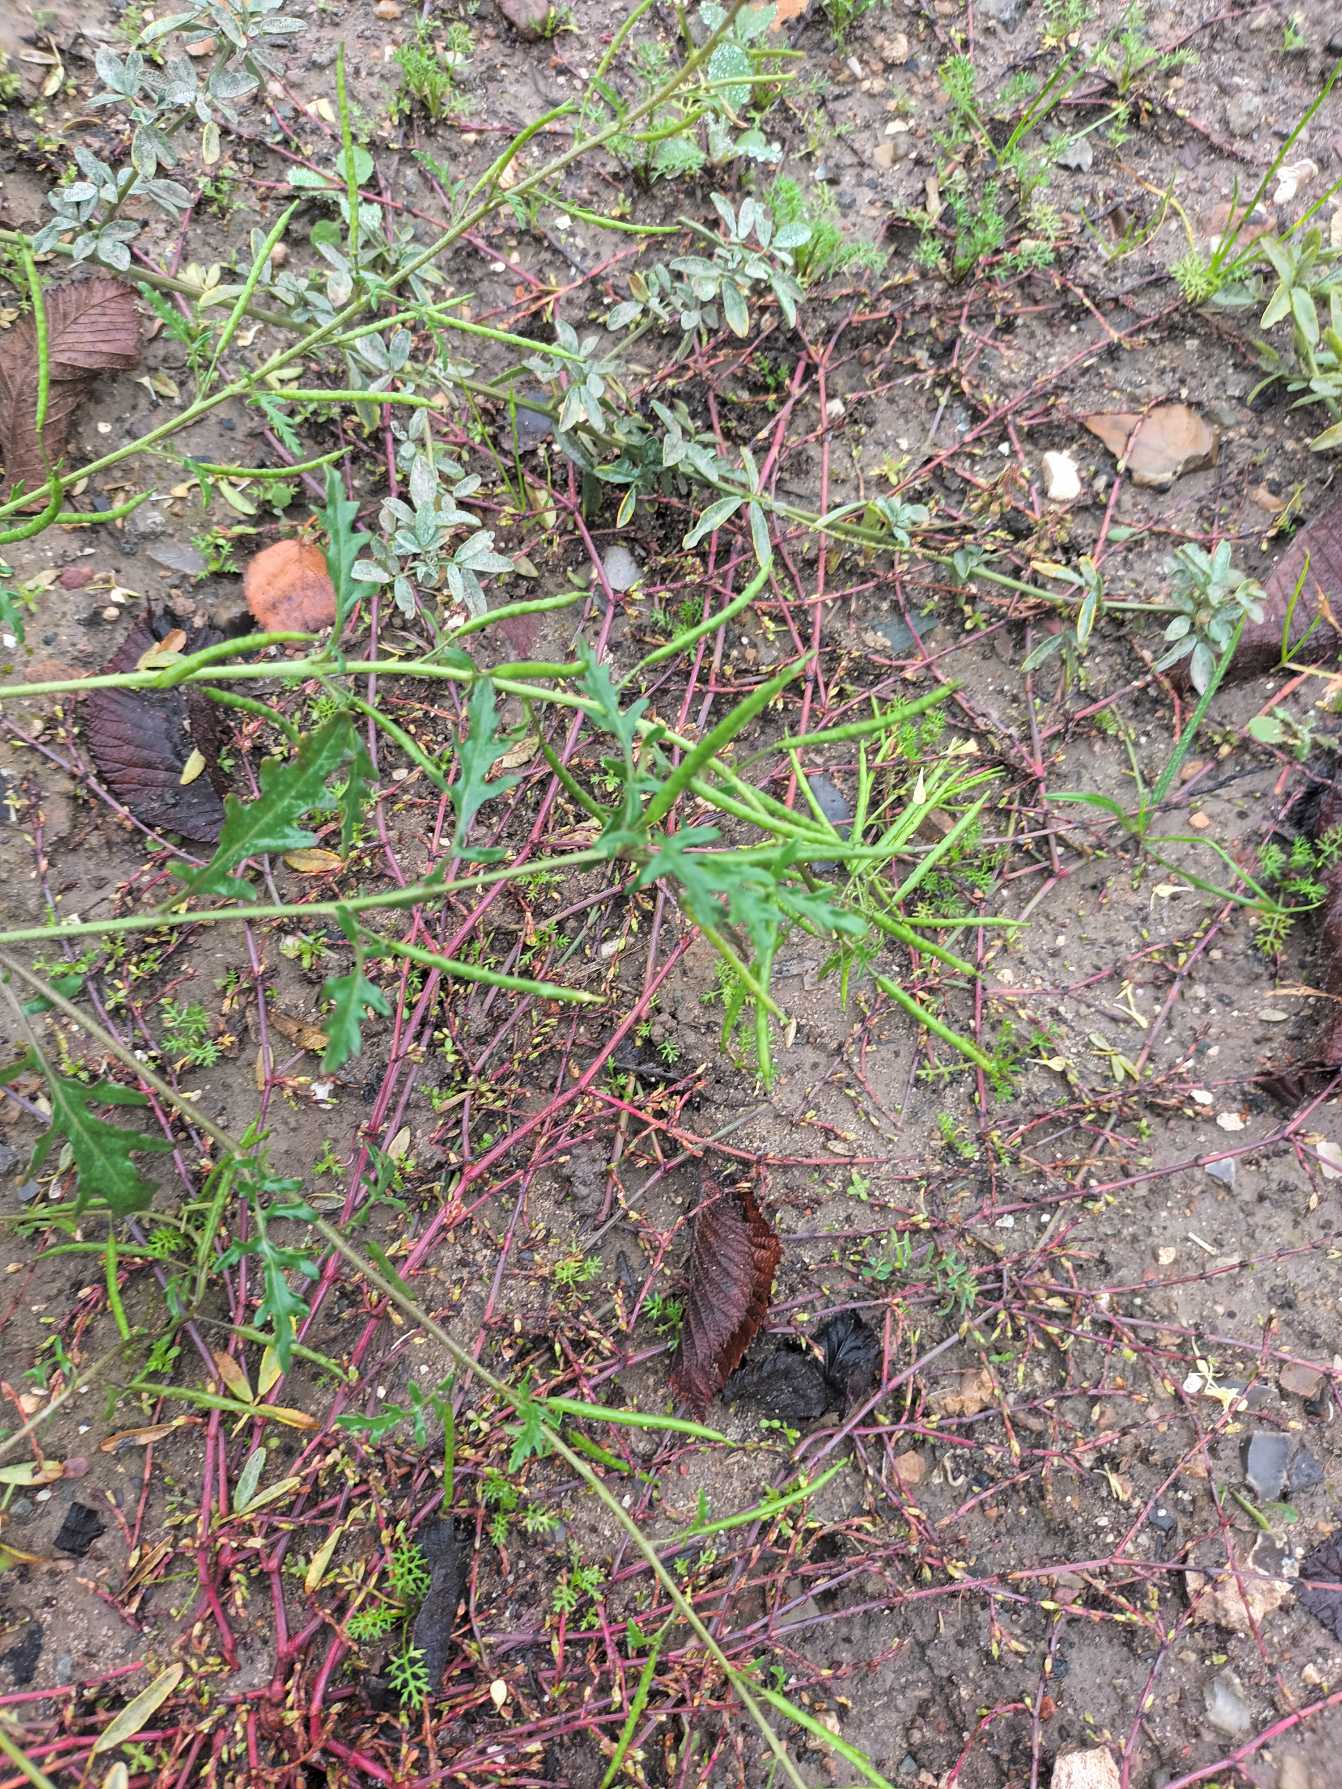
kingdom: Plantae
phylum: Tracheophyta
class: Magnoliopsida
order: Brassicales
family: Brassicaceae
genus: Diplotaxis
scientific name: Diplotaxis muralis
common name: Mursennep
